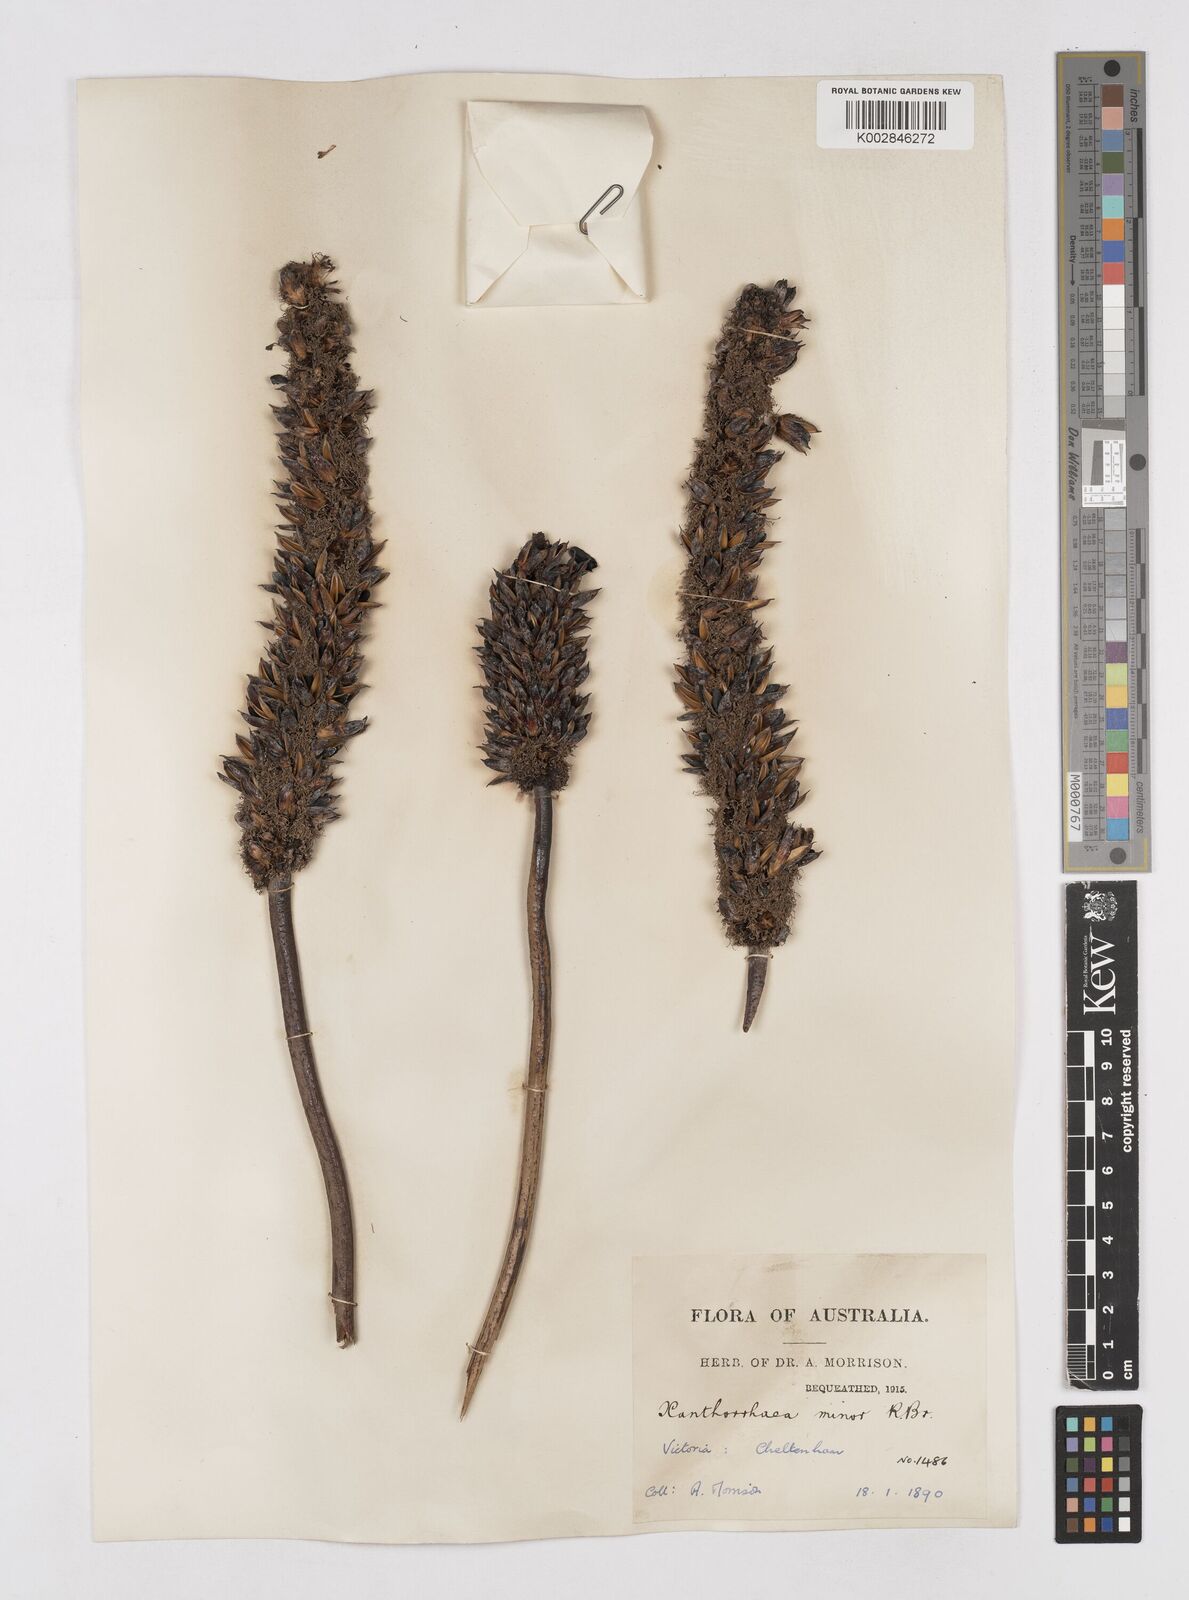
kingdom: Plantae
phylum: Tracheophyta
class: Liliopsida
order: Asparagales
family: Asphodelaceae
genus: Xanthorrhoea
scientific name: Xanthorrhoea minor
